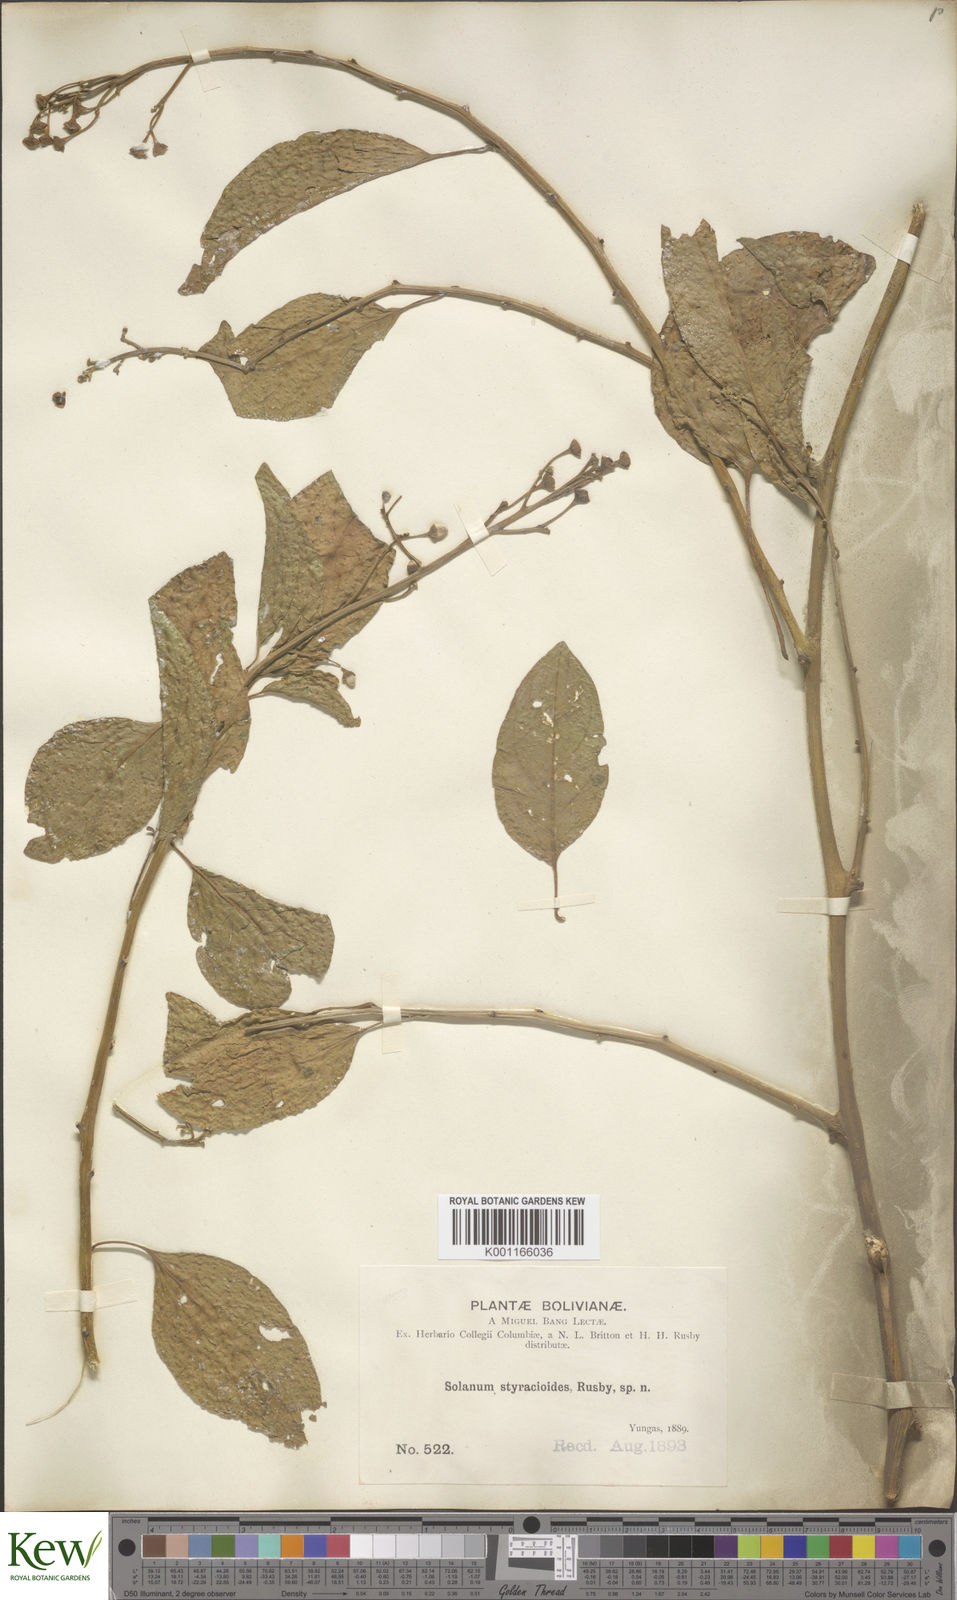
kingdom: Plantae
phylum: Tracheophyta
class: Magnoliopsida
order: Solanales
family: Solanaceae
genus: Solanum
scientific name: Solanum uncinellum
